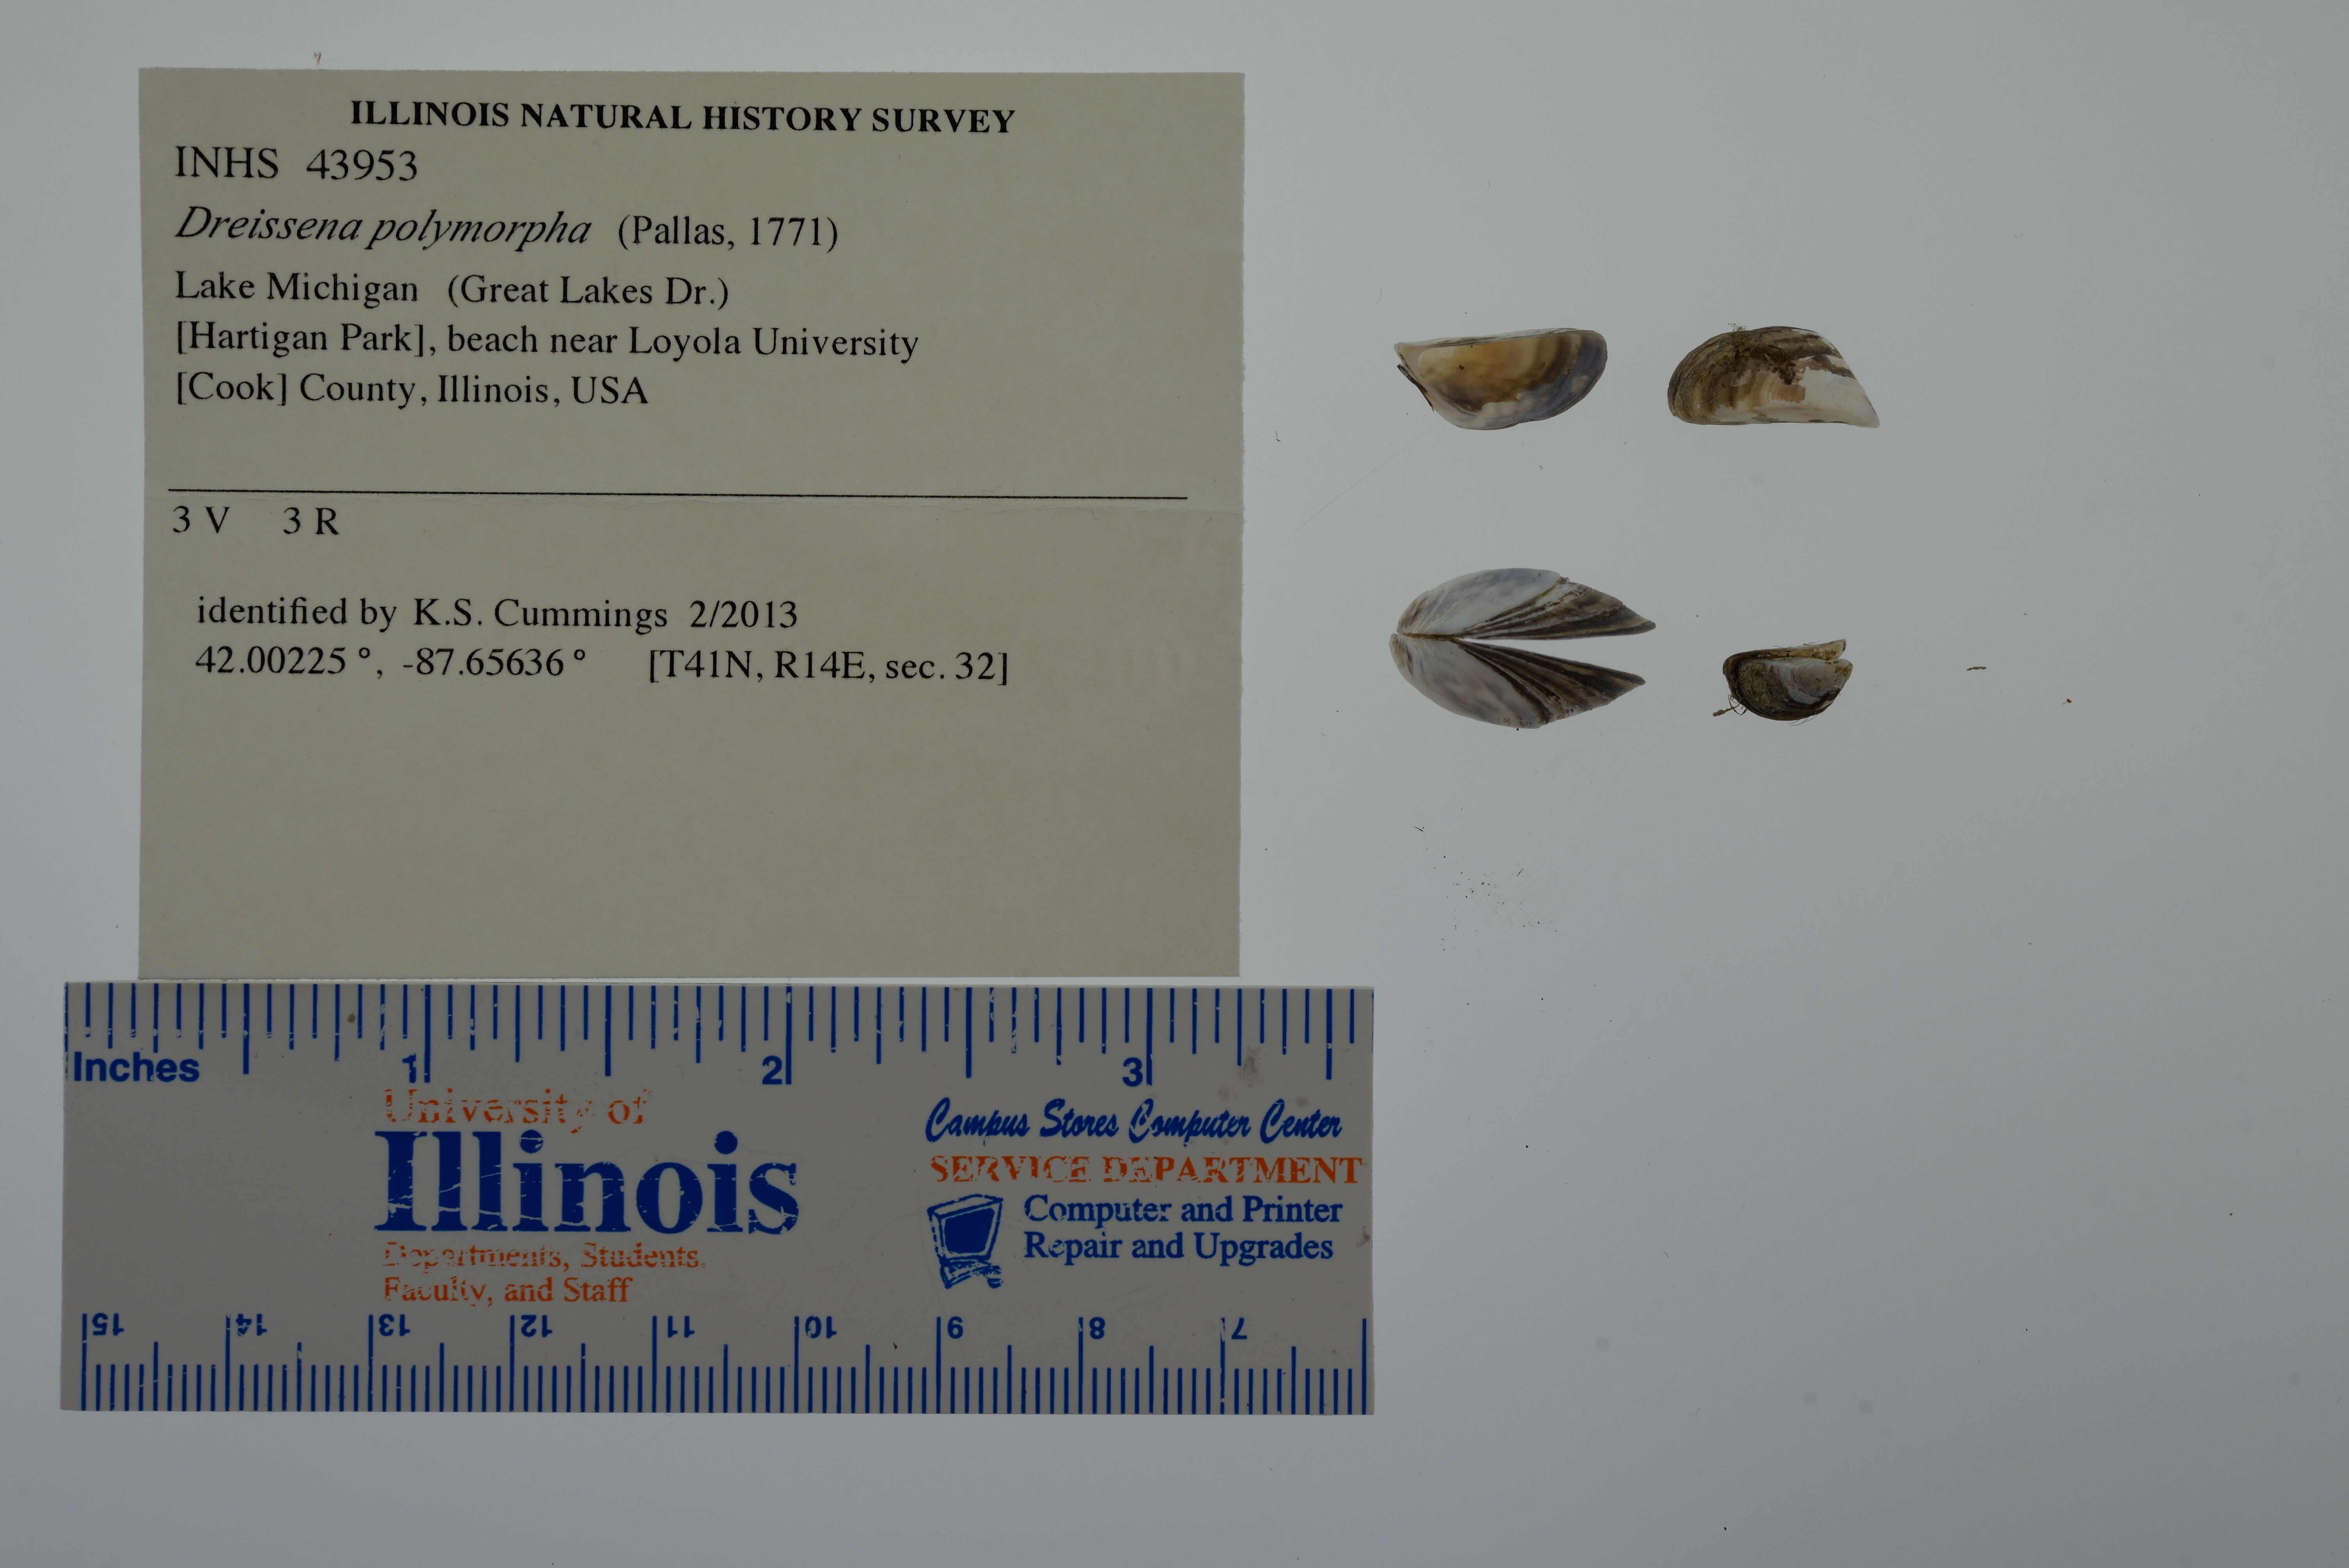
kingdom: Animalia
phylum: Mollusca
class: Bivalvia
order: Myida
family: Dreissenidae
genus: Dreissena
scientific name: Dreissena polymorpha
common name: Zebra mussel
